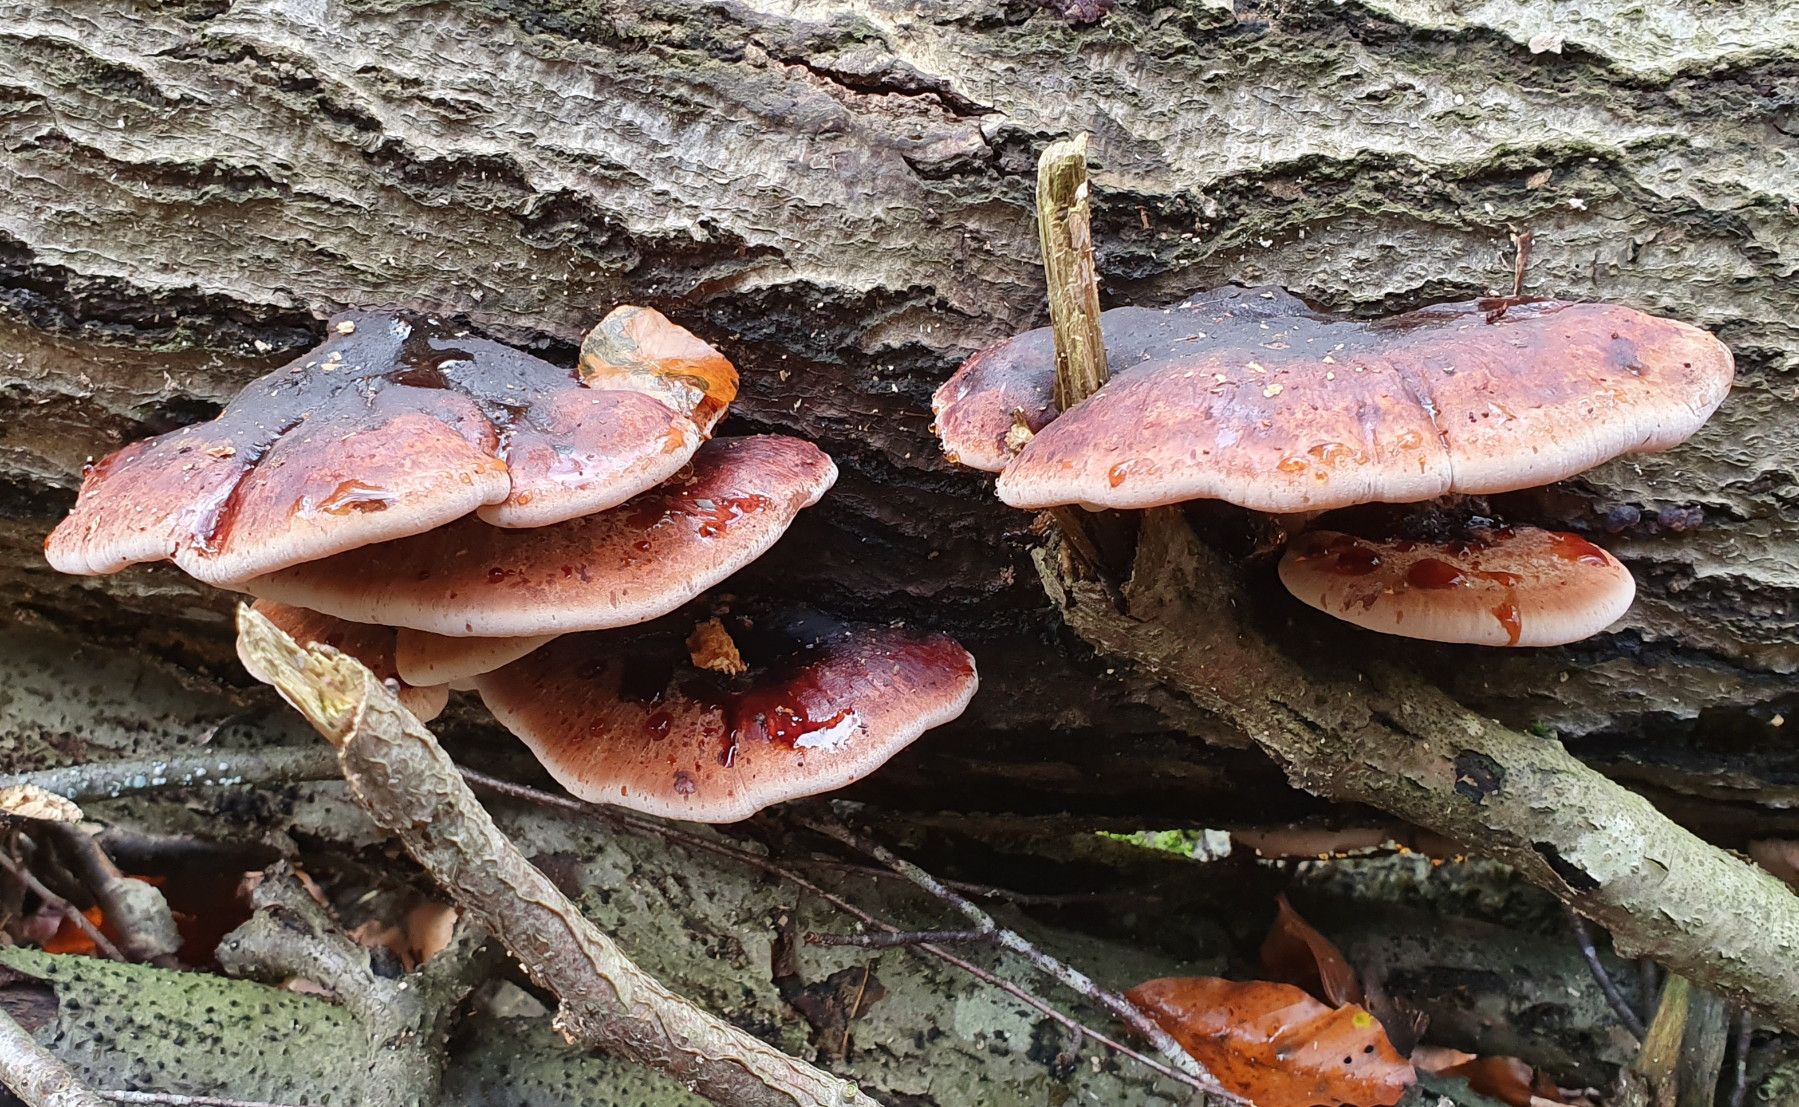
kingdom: Fungi
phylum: Basidiomycota
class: Agaricomycetes
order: Polyporales
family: Ischnodermataceae
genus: Ischnoderma
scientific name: Ischnoderma resinosum
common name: løv-tjæreporesvamp
